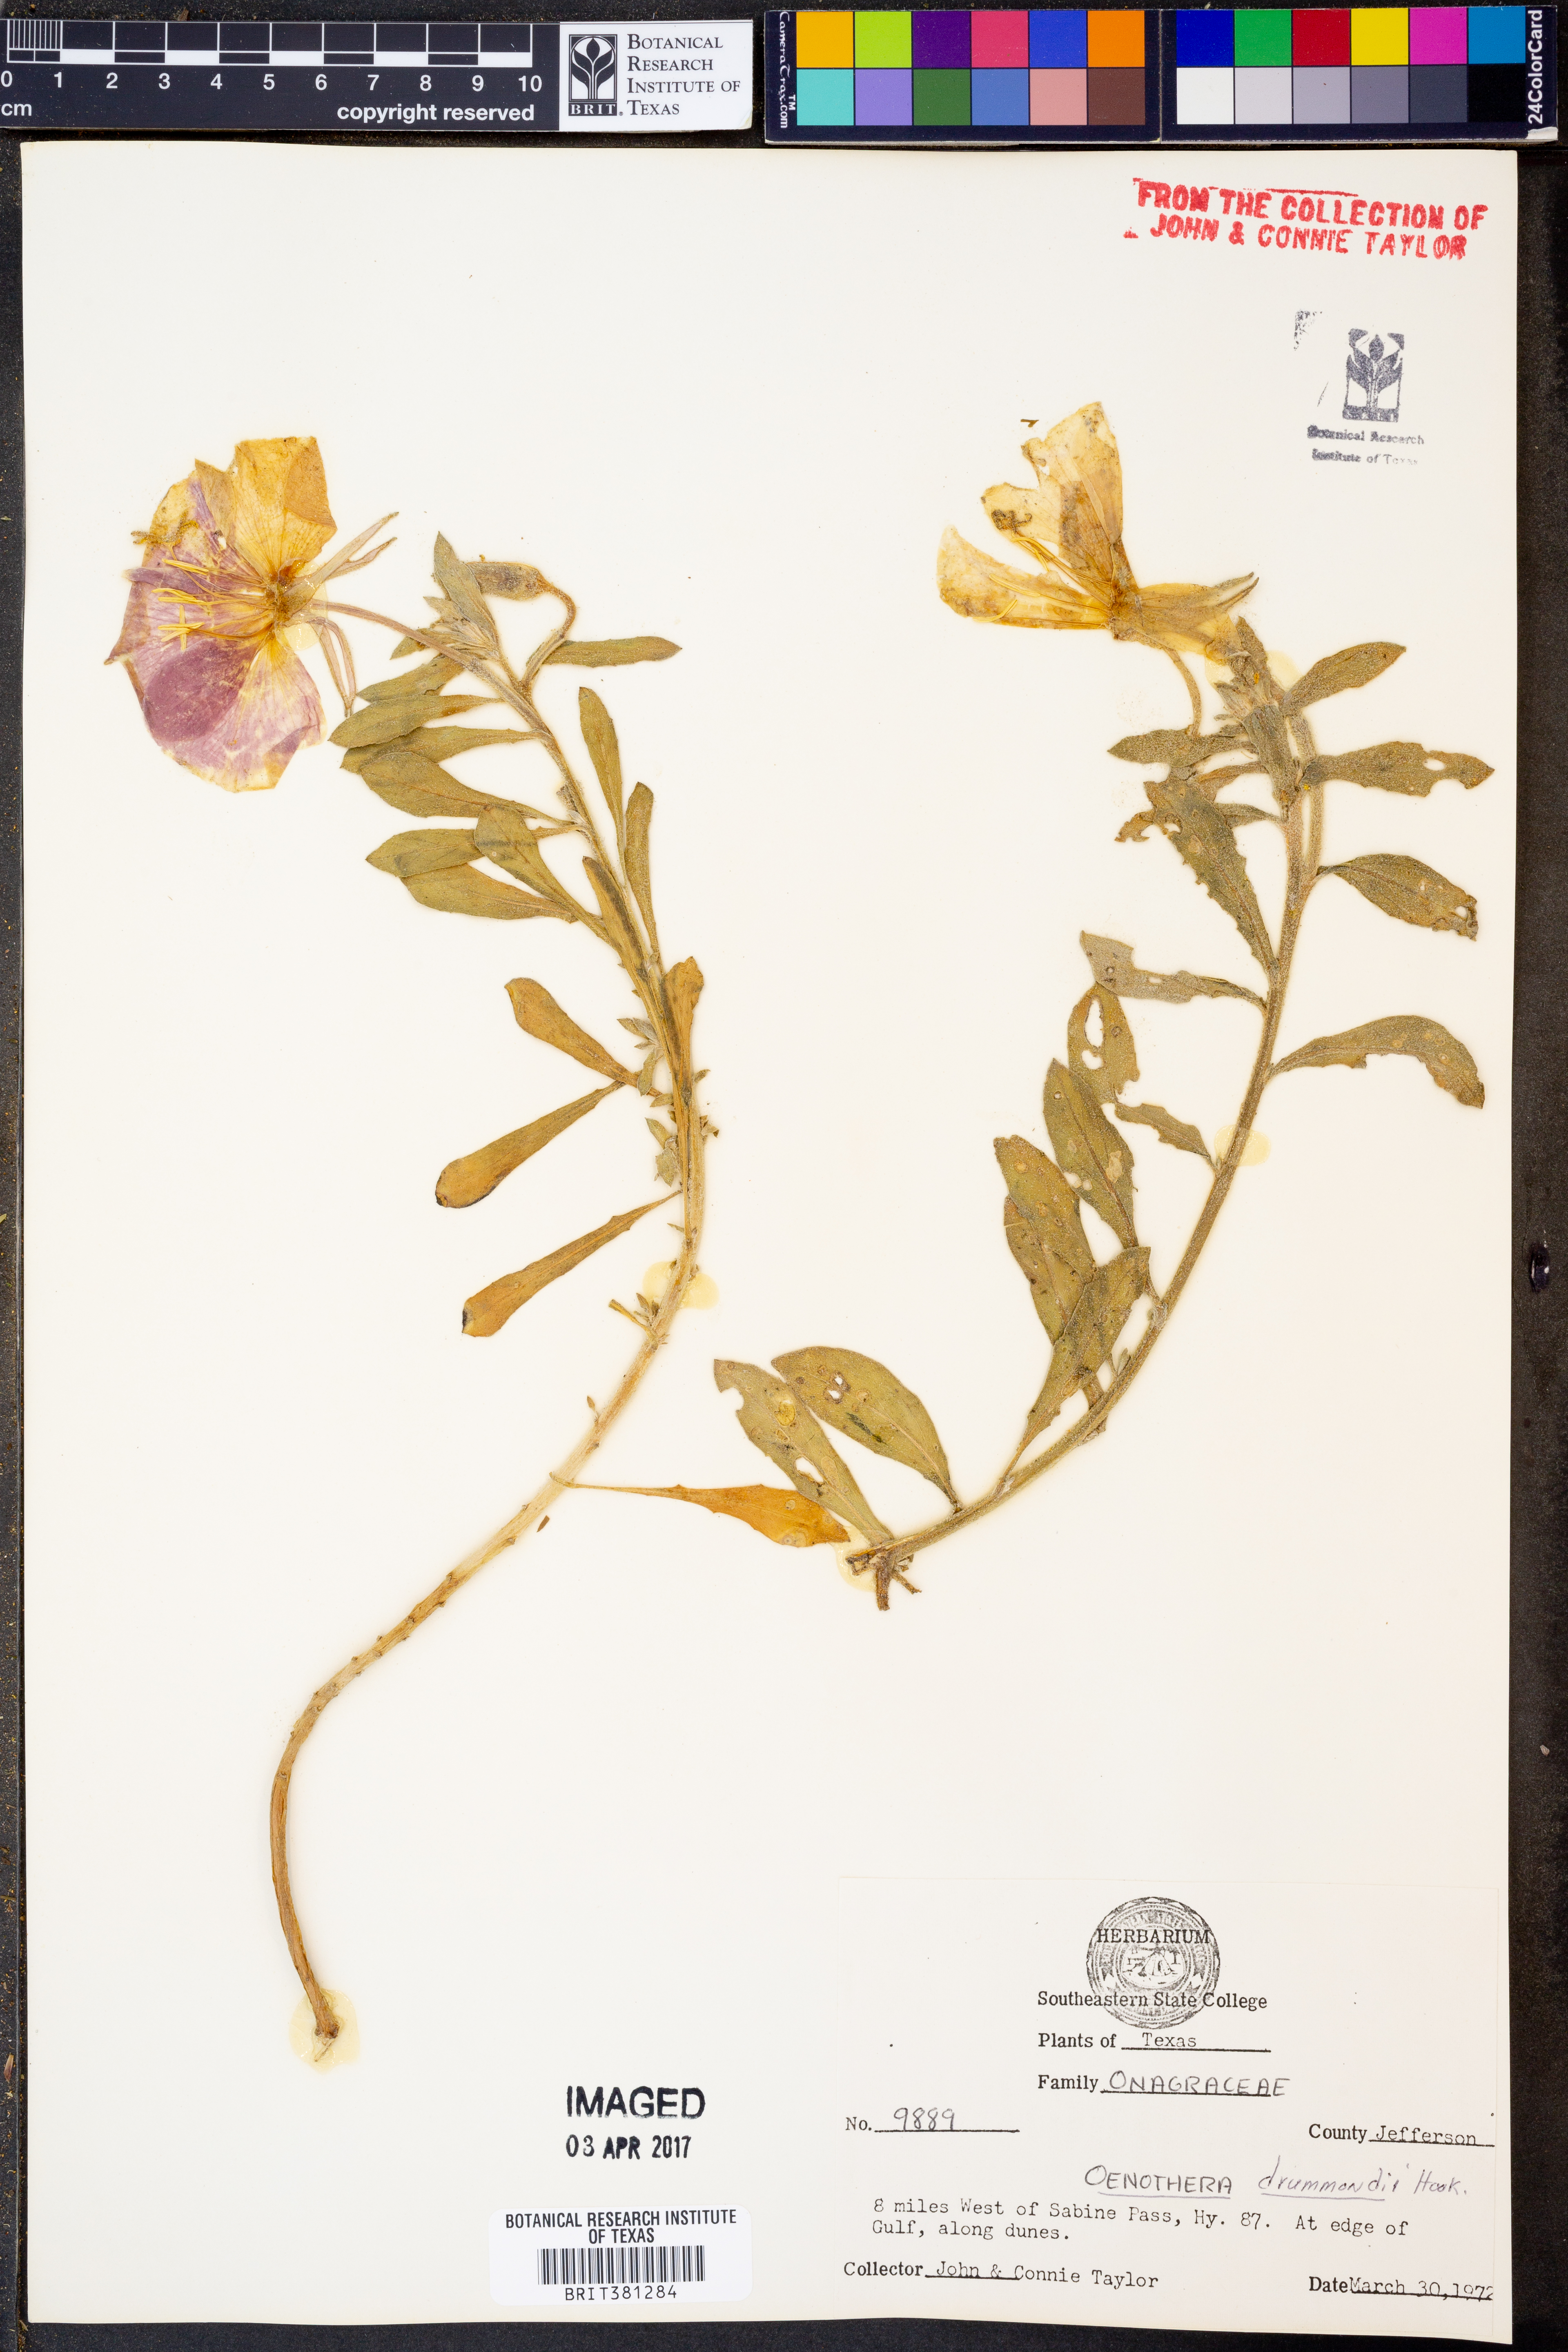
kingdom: Plantae
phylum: Tracheophyta
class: Magnoliopsida
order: Myrtales
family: Onagraceae
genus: Oenothera
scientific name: Oenothera drummondii
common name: Beach evening-primrose
